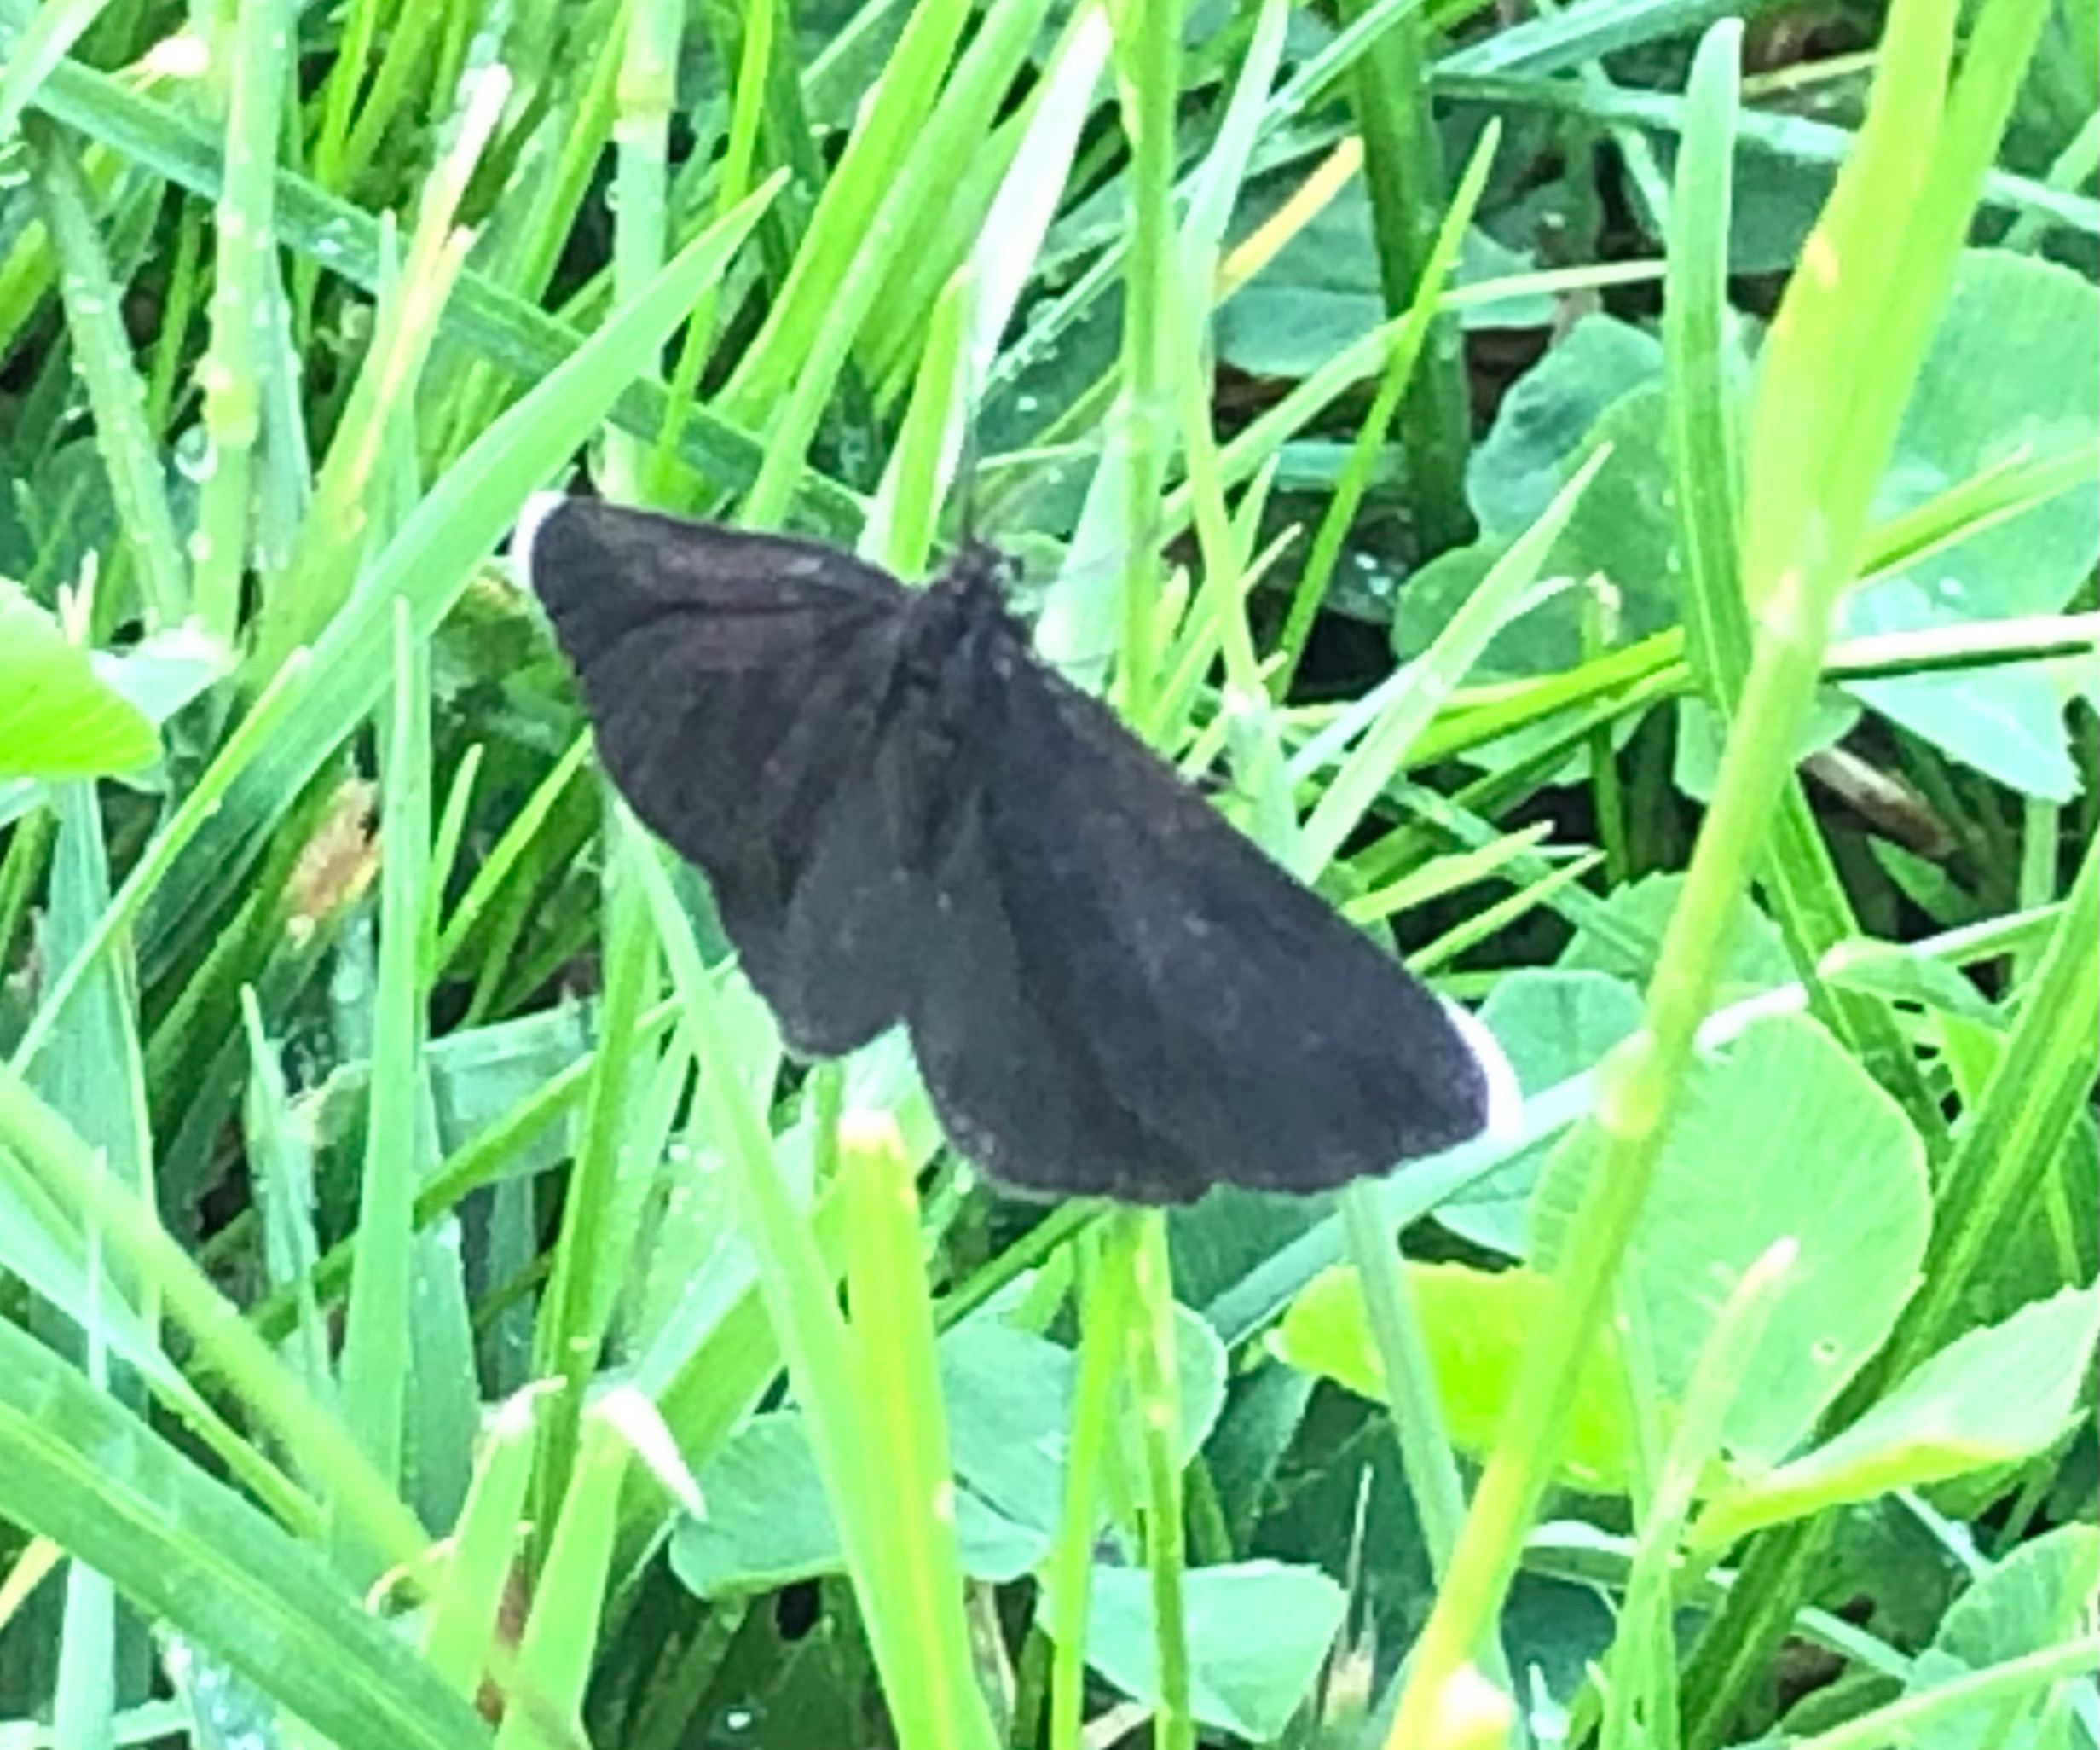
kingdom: Animalia
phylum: Arthropoda
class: Insecta
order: Lepidoptera
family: Geometridae
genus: Odezia
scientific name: Odezia atrata
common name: Sort måler
